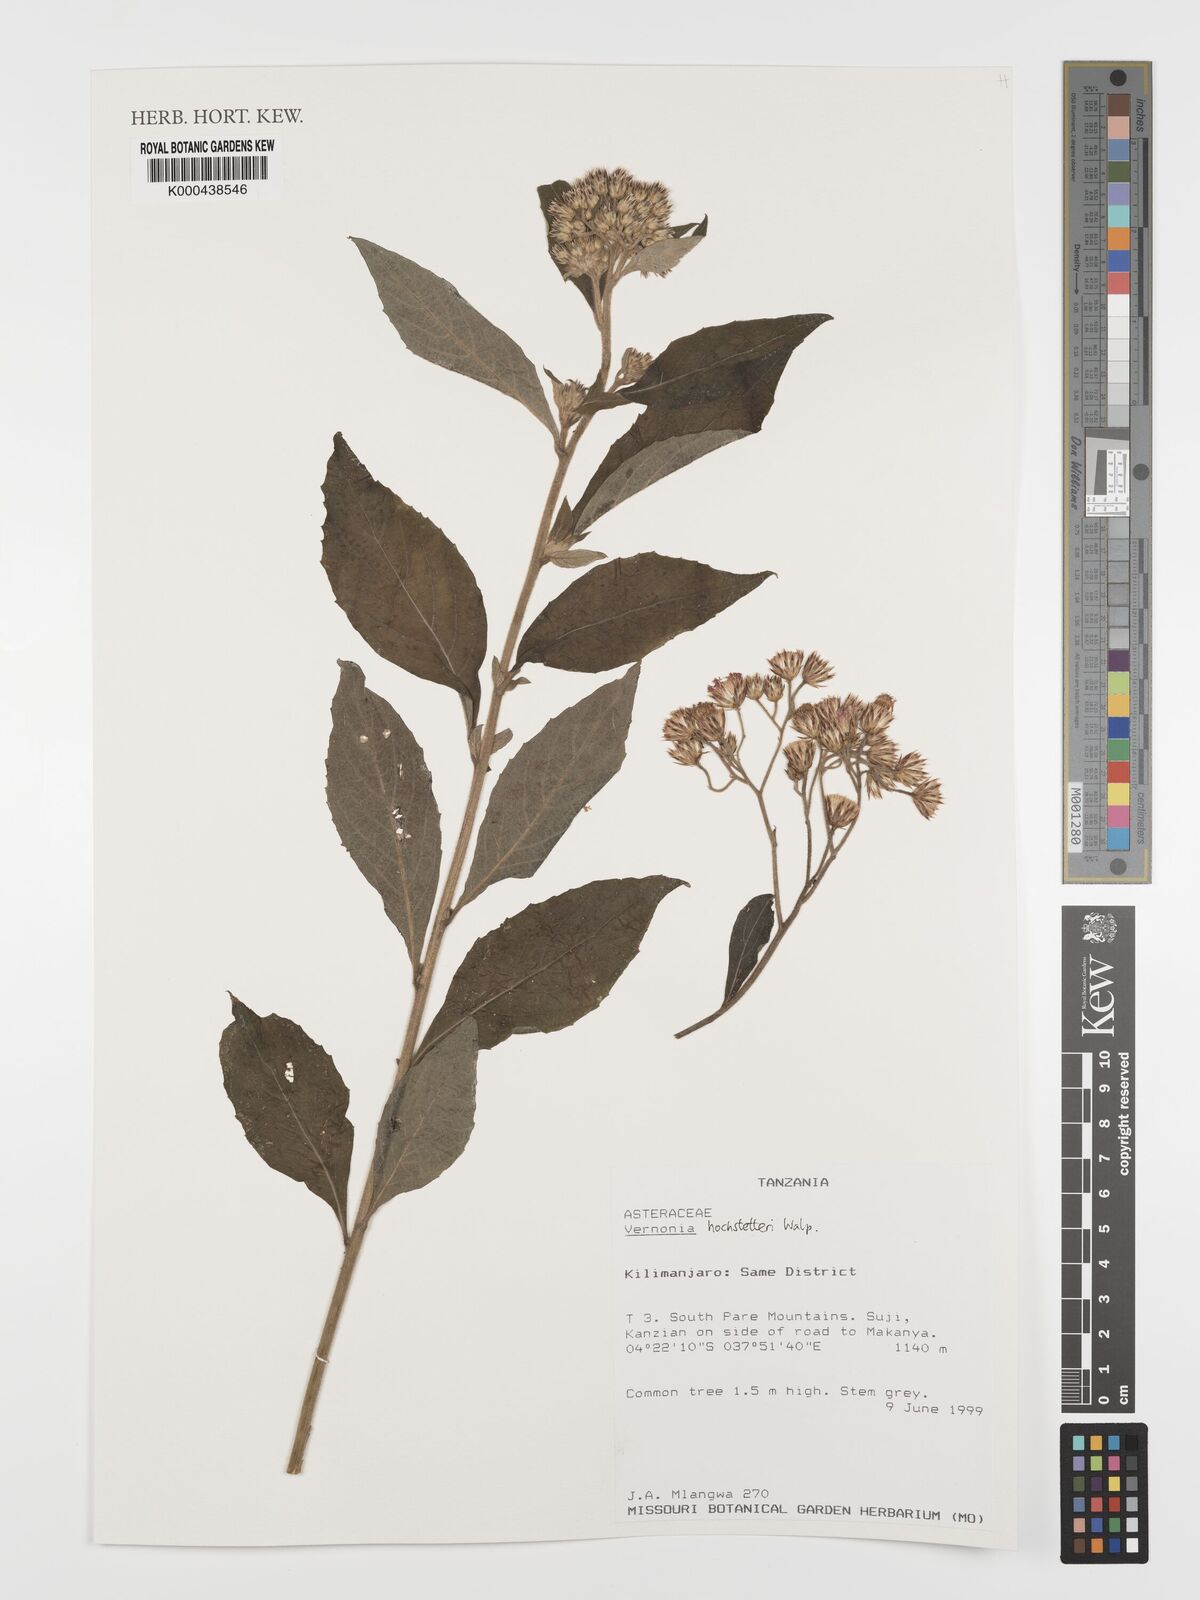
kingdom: Plantae
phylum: Tracheophyta
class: Magnoliopsida
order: Asterales
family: Asteraceae
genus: Vernonia
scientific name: Vernonia
